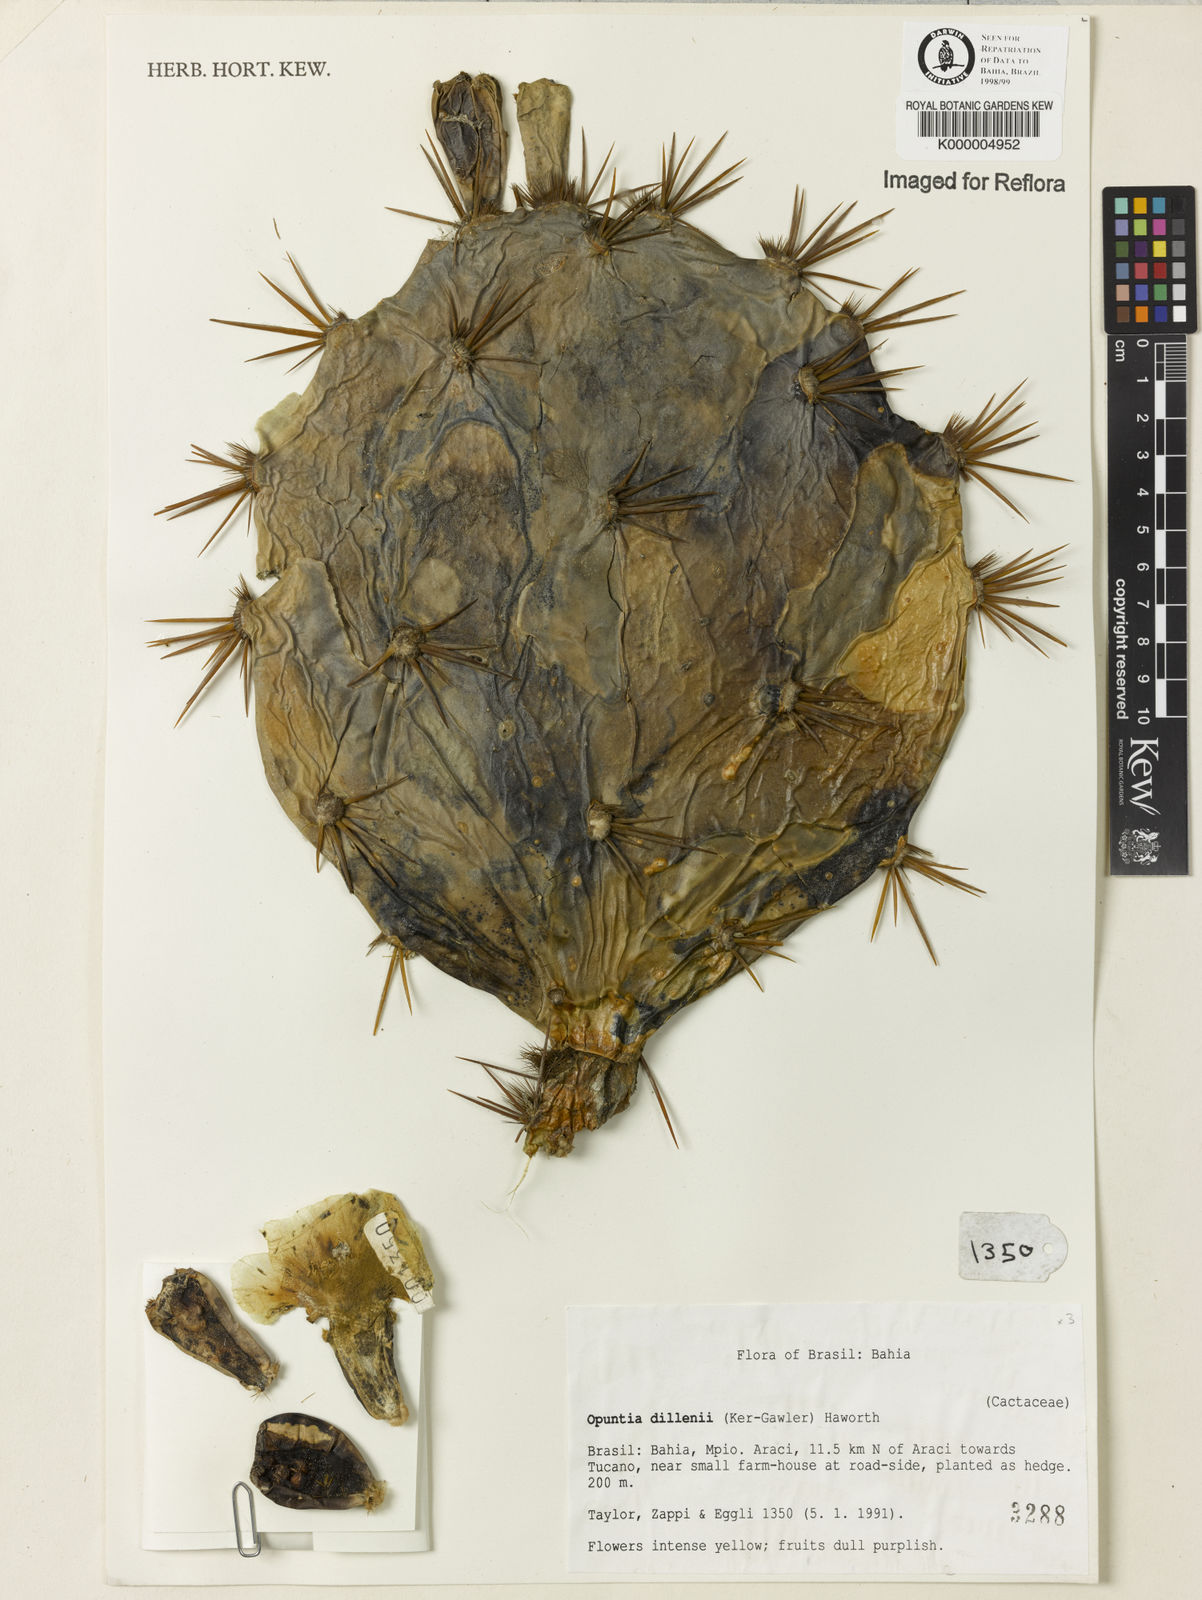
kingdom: Plantae
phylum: Tracheophyta
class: Magnoliopsida
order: Caryophyllales
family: Cactaceae
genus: Opuntia
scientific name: Opuntia dillenii
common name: Sour prickle
